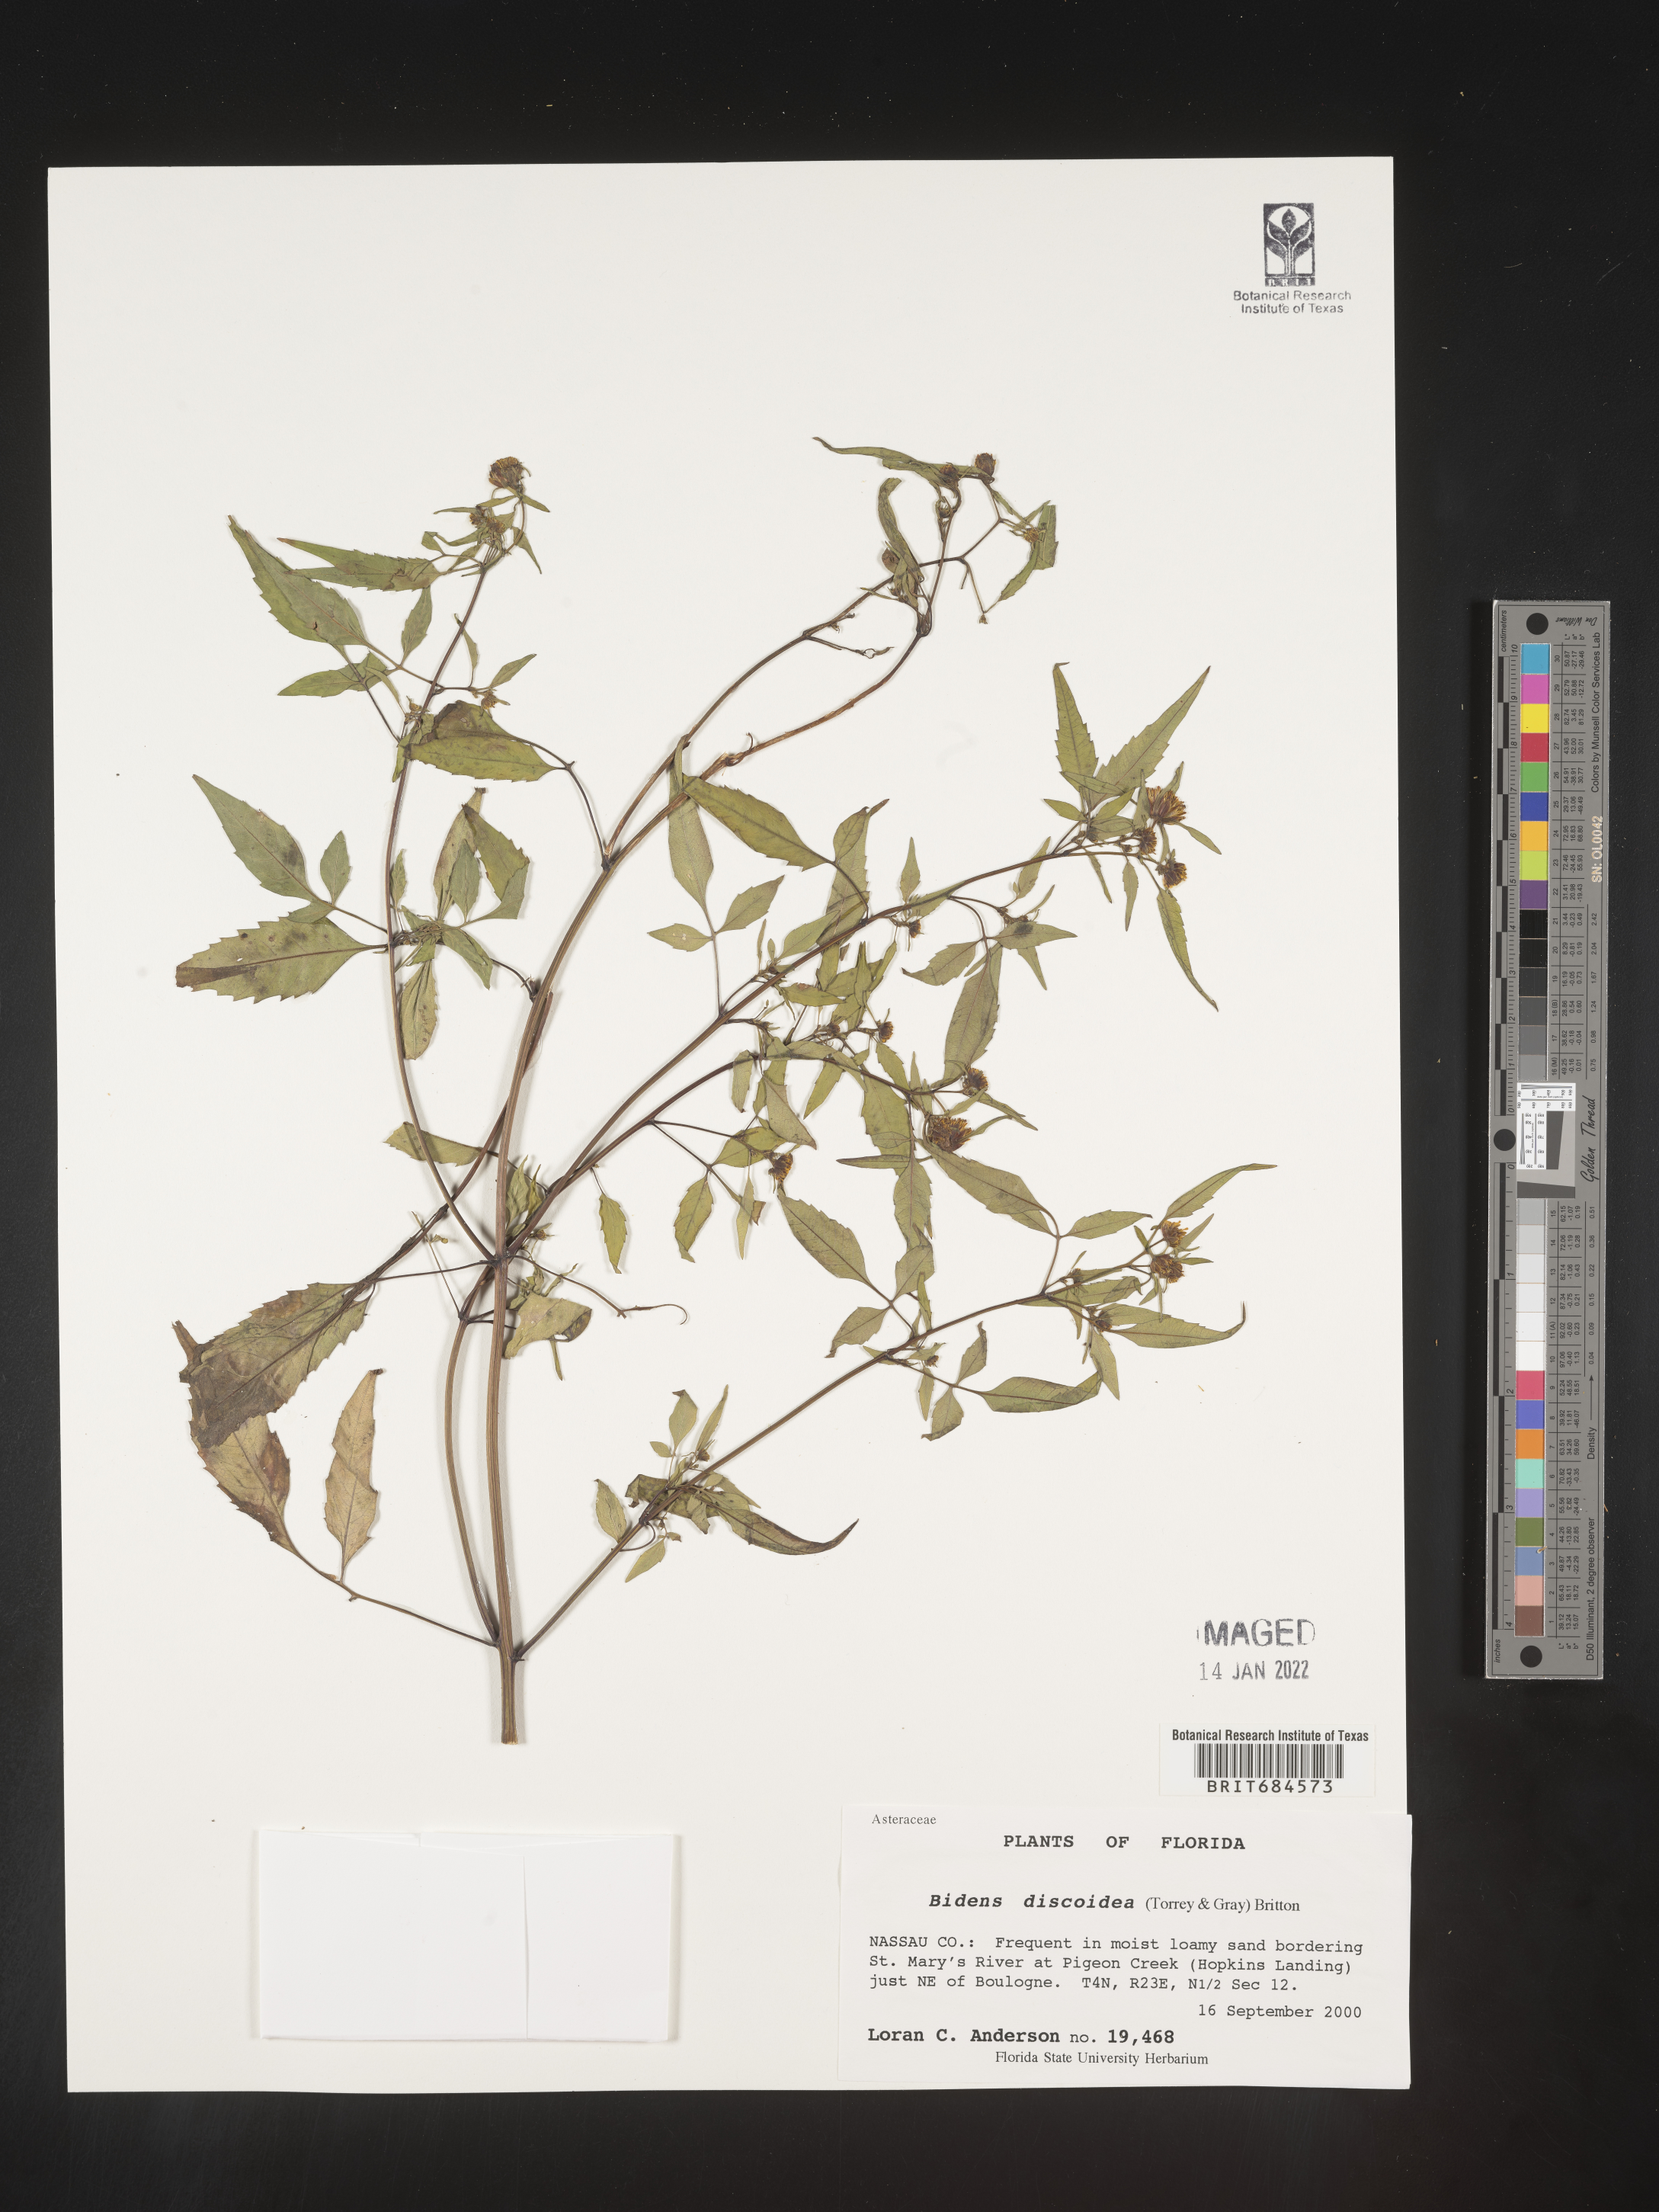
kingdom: Plantae
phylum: Tracheophyta
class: Magnoliopsida
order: Asterales
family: Asteraceae
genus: Bidens
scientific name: Bidens discoidea
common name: Discoide beggarticks
